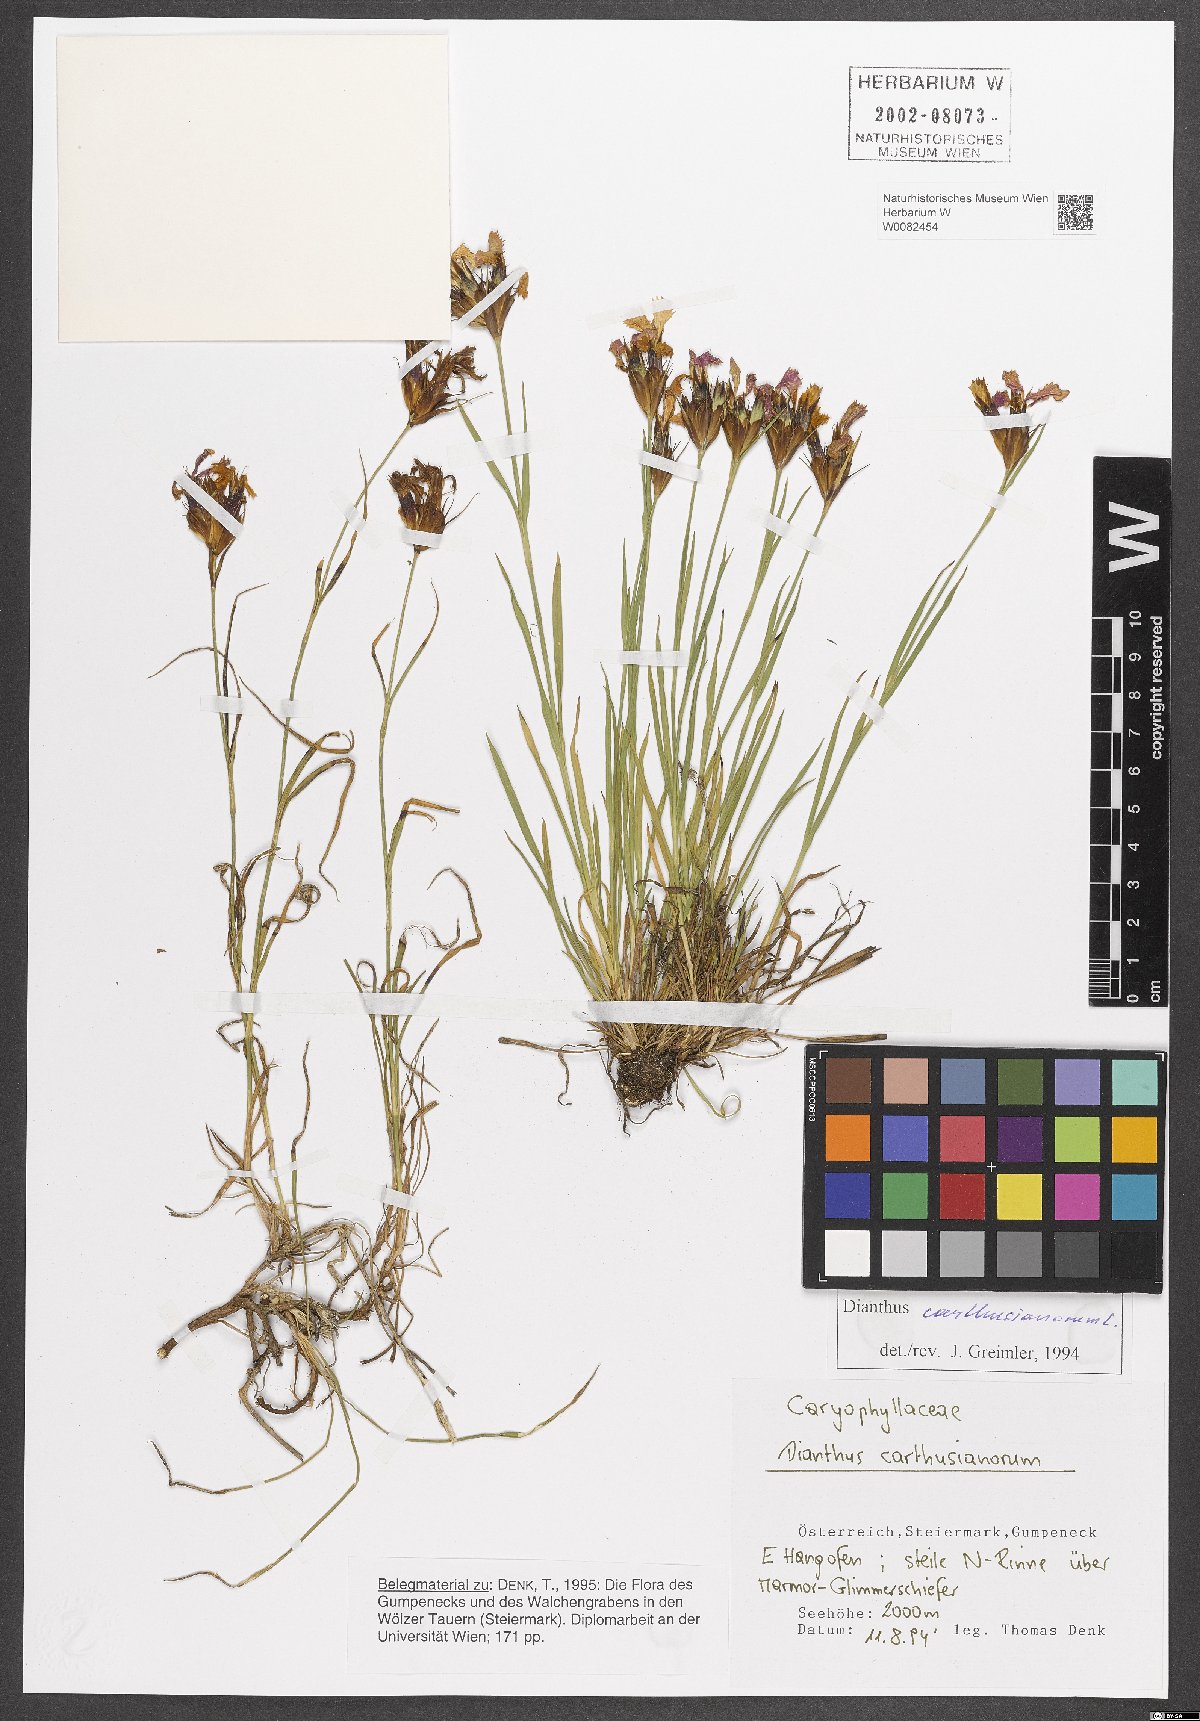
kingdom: Plantae
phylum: Tracheophyta
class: Magnoliopsida
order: Caryophyllales
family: Caryophyllaceae
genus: Dianthus
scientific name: Dianthus carthusianorum
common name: Carthusian pink
